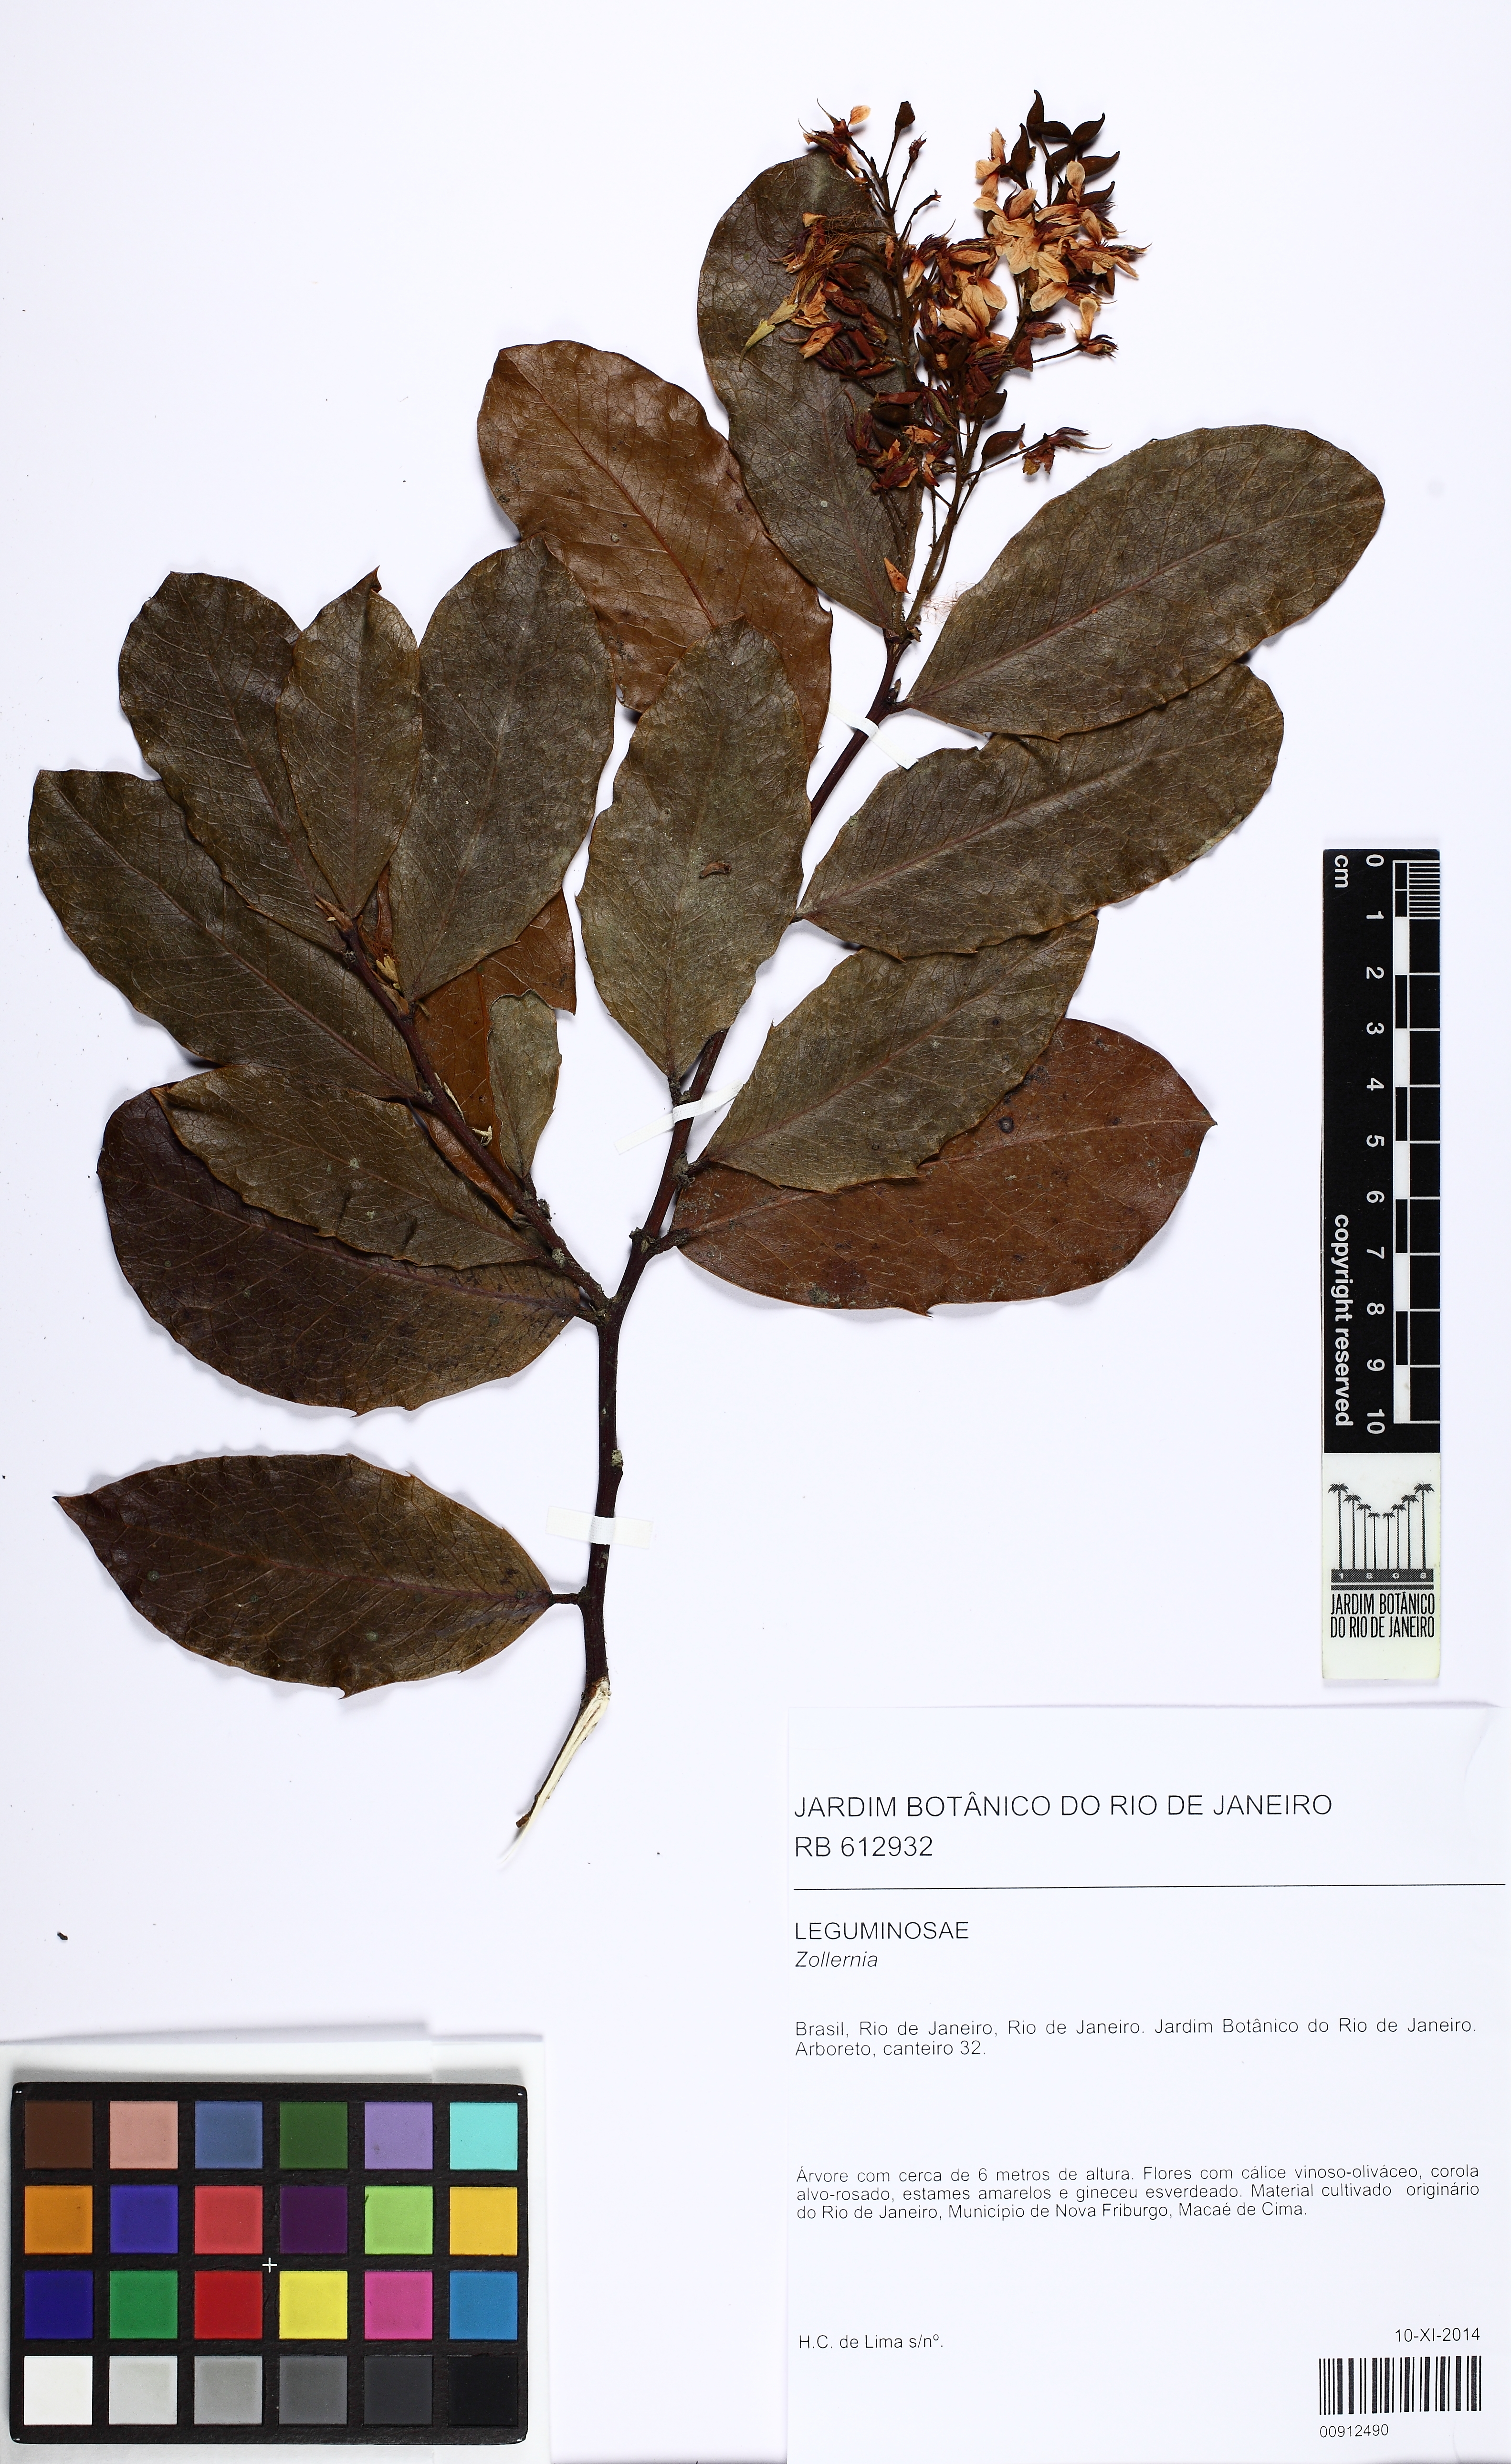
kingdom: Plantae
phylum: Tracheophyta
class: Magnoliopsida
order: Fabales
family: Fabaceae
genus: Zollernia
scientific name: Zollernia
